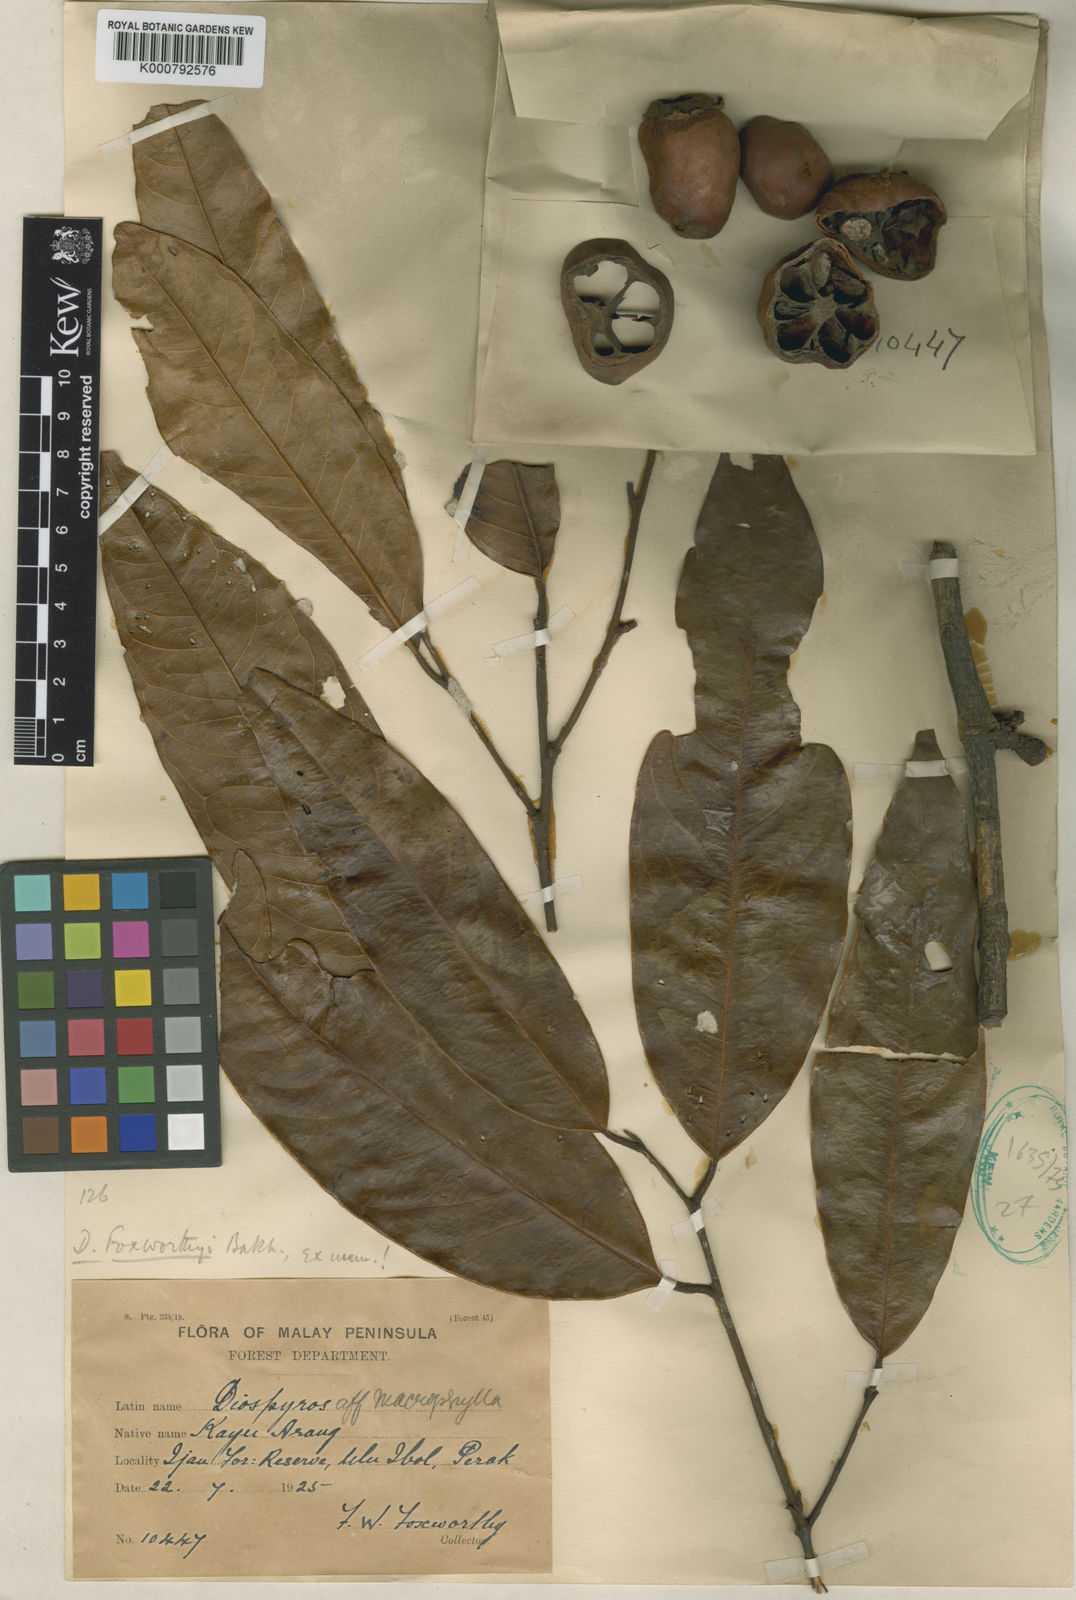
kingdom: Plantae
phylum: Tracheophyta
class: Magnoliopsida
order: Ericales
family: Ebenaceae
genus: Diospyros
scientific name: Diospyros foxworthyi
